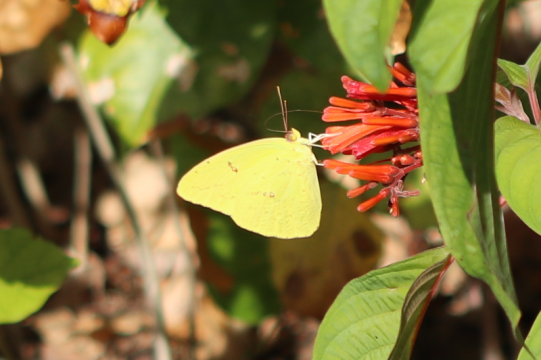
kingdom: Animalia
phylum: Arthropoda
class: Insecta
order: Lepidoptera
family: Pieridae
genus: Phoebis
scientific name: Phoebis sennae
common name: Cloudless Sulphur
